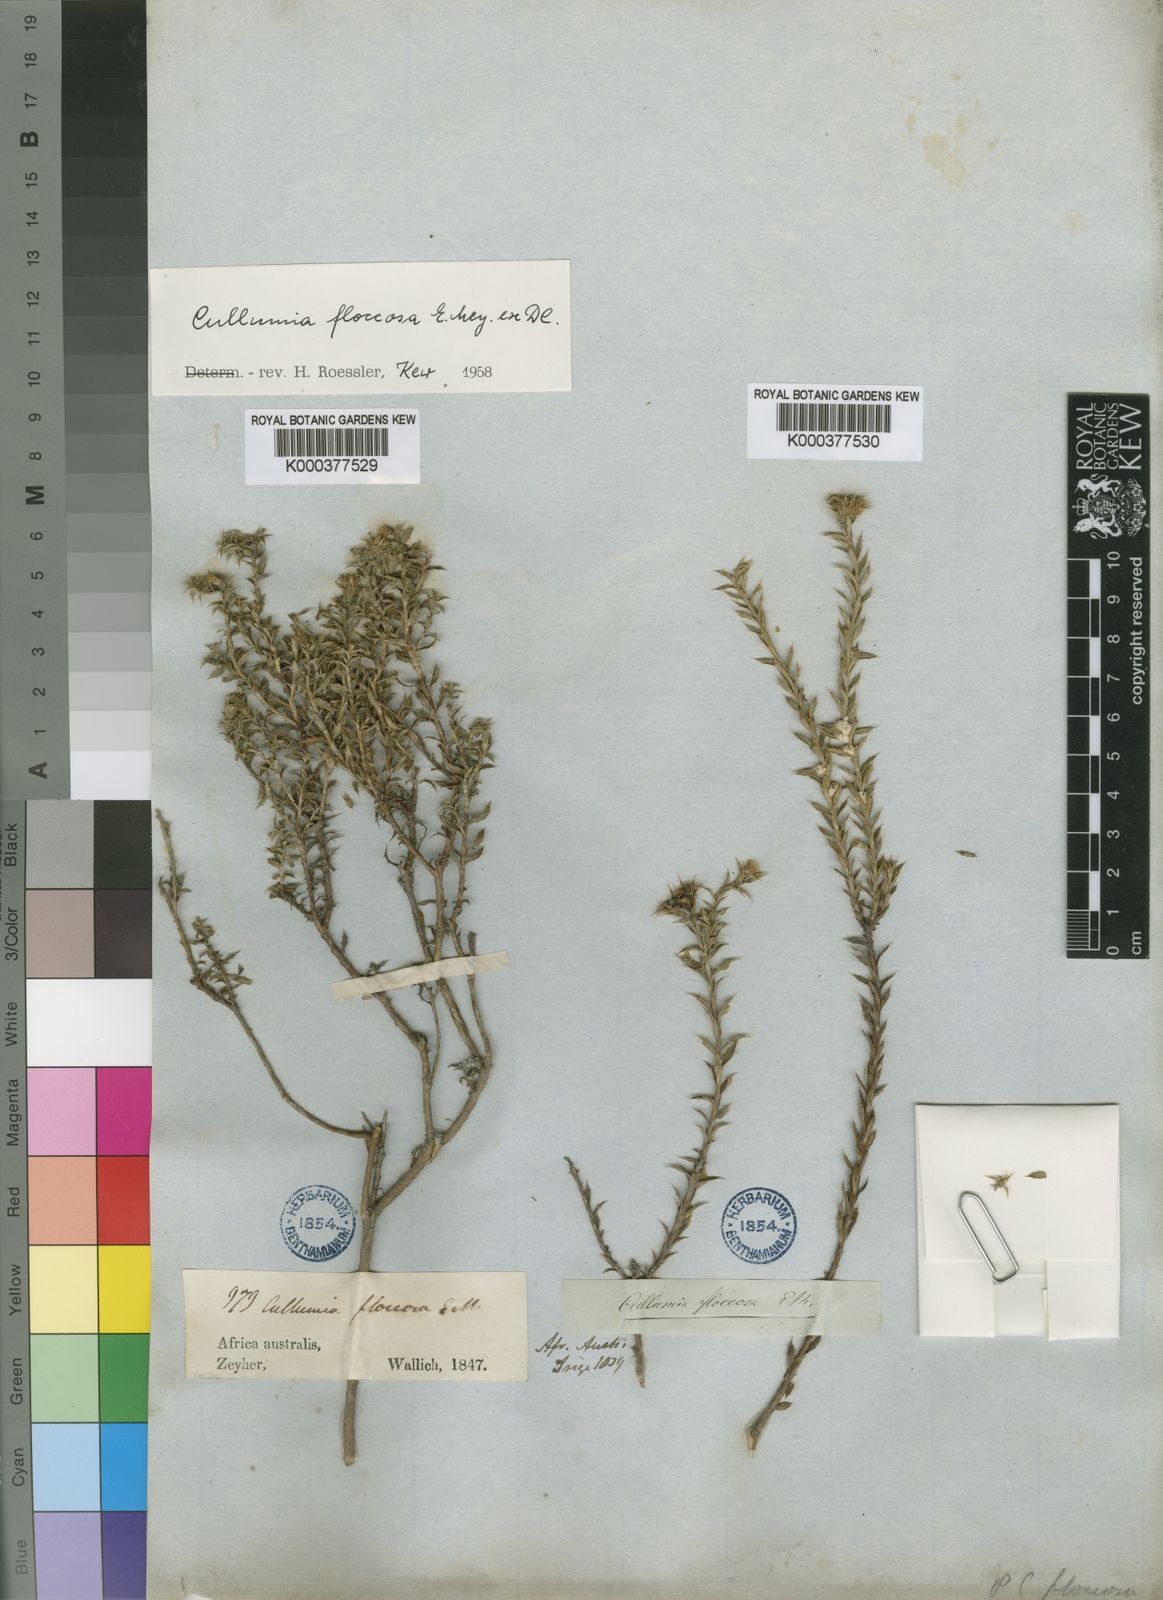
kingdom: Plantae
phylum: Tracheophyta
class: Magnoliopsida
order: Asterales
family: Asteraceae
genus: Cullumia
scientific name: Cullumia floccosa
